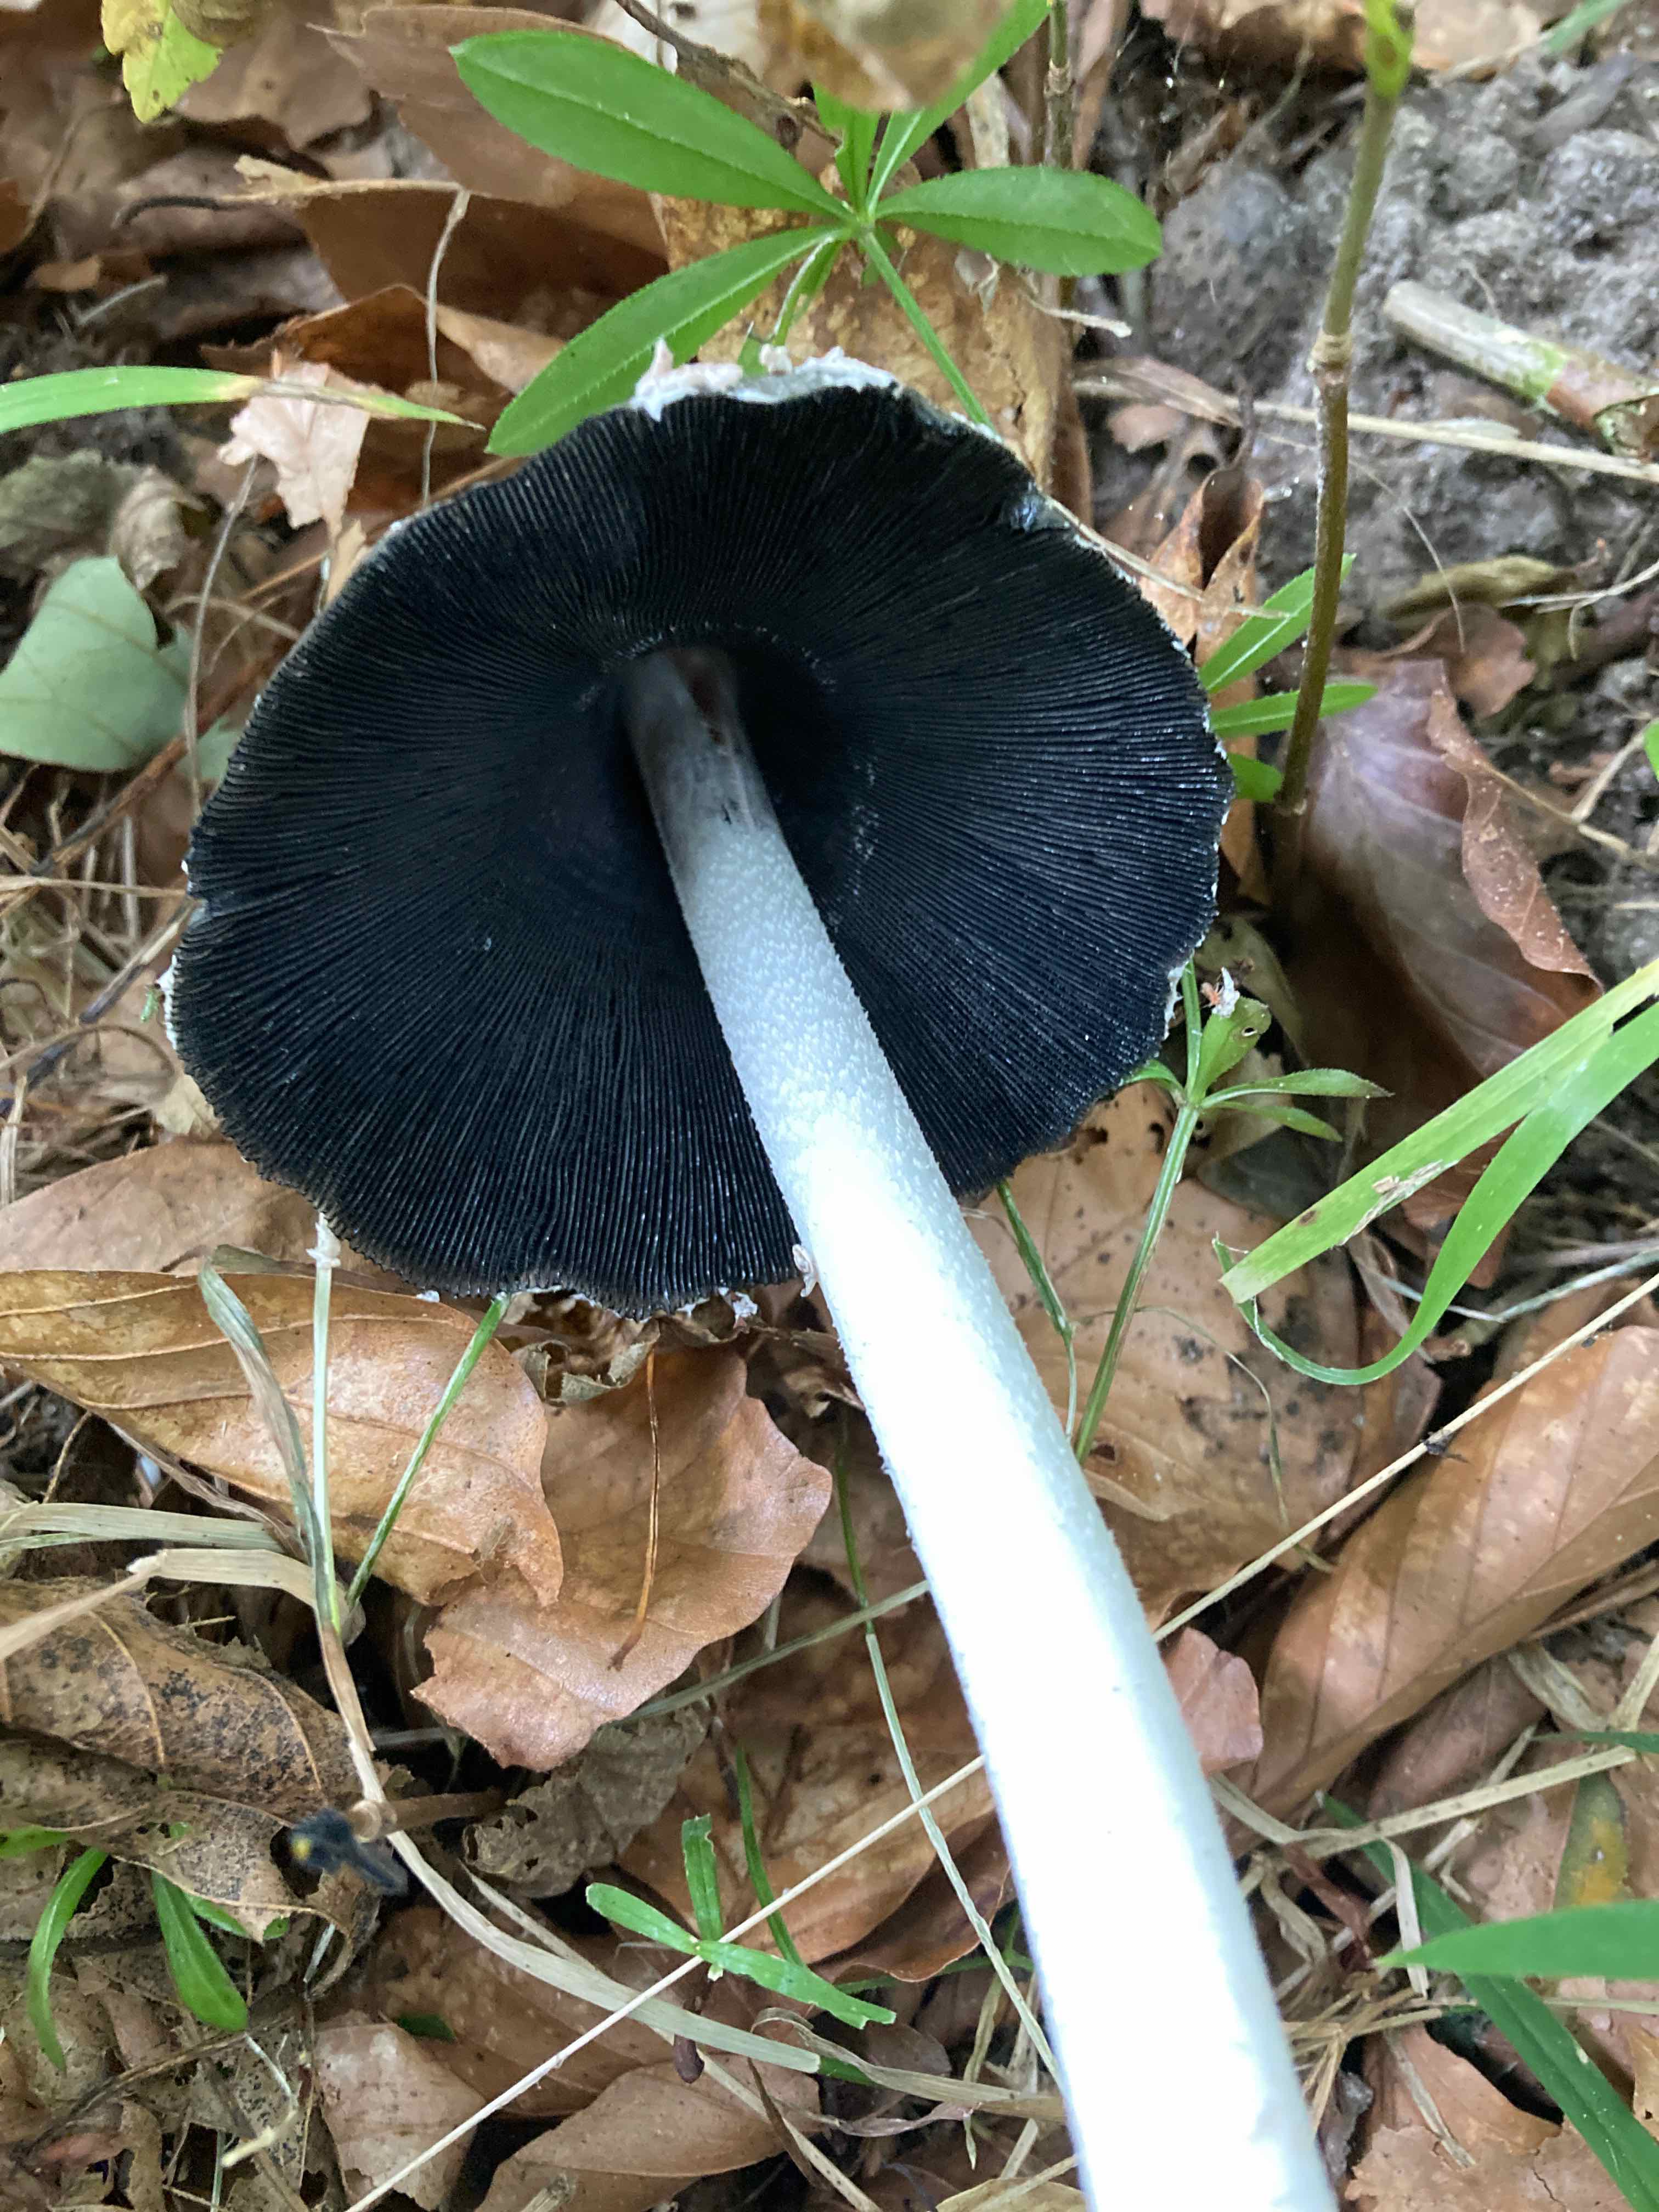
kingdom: Fungi
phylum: Basidiomycota
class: Agaricomycetes
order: Agaricales
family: Psathyrellaceae
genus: Coprinopsis
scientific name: Coprinopsis picacea
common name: skade-blækhat
